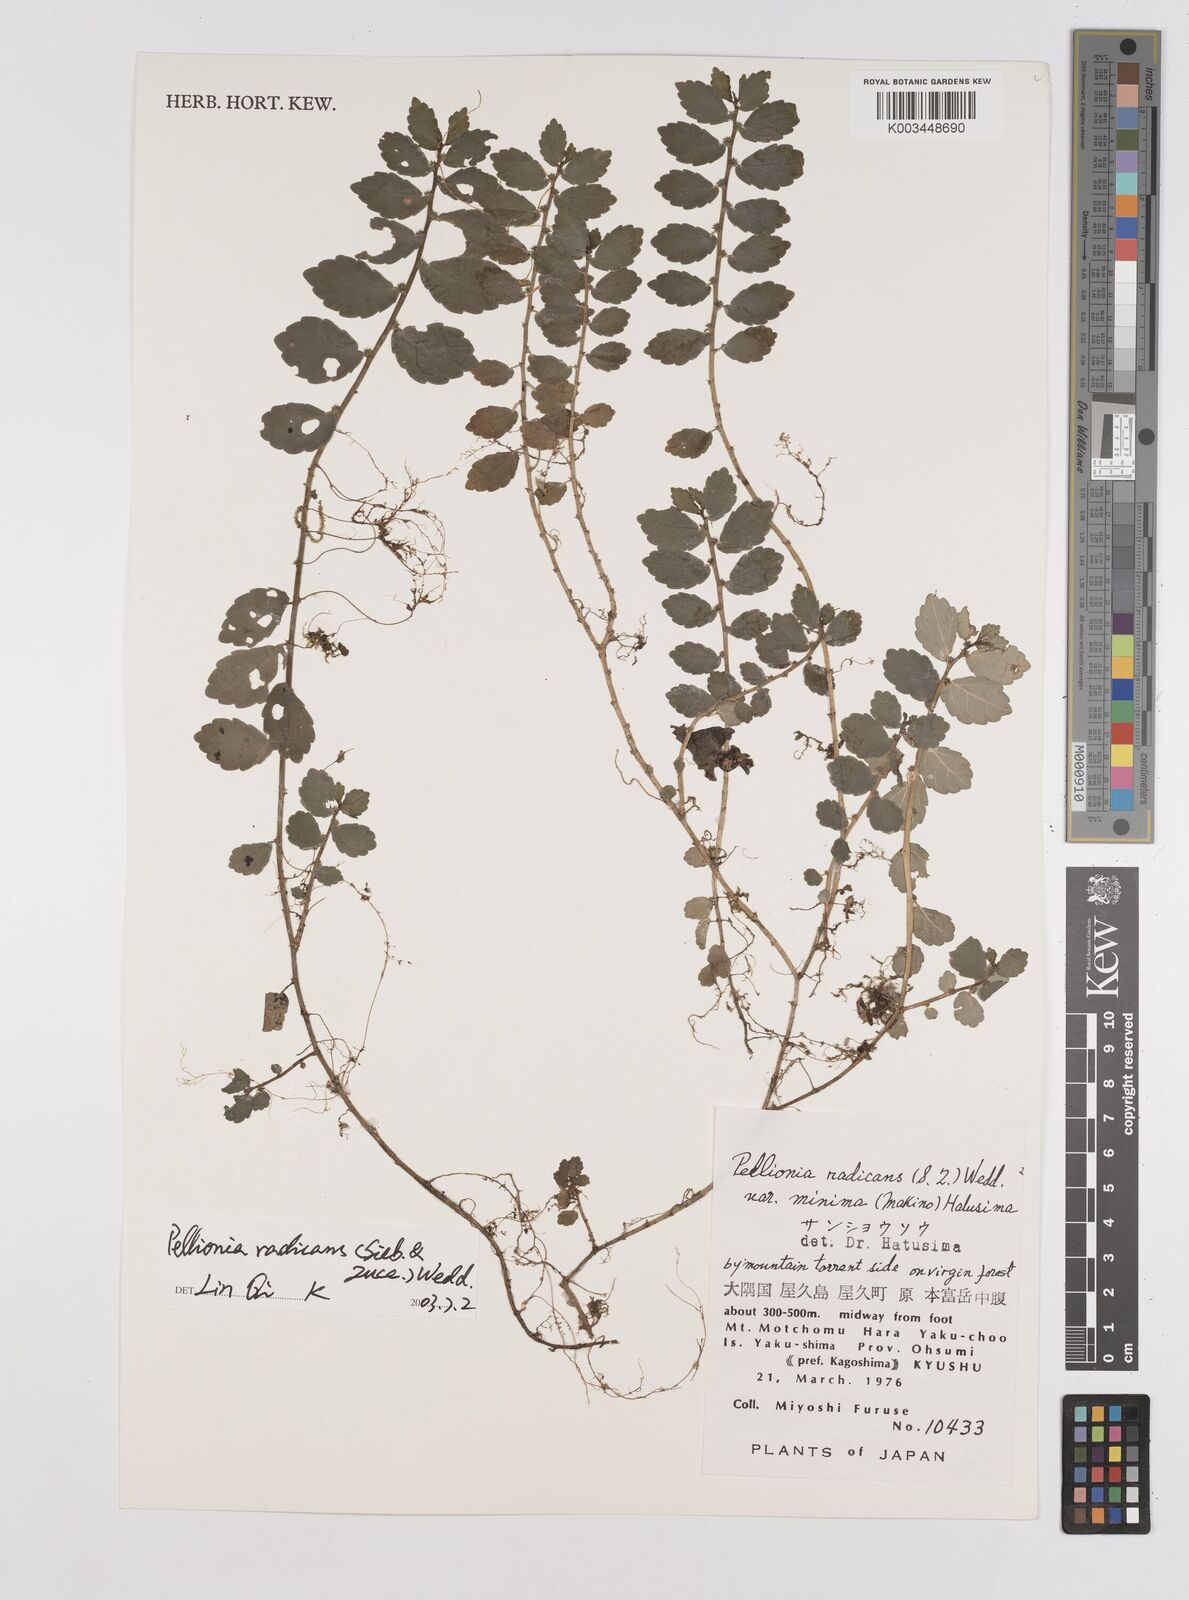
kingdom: Plantae
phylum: Tracheophyta
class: Magnoliopsida
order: Rosales
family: Urticaceae
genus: Elatostema
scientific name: Elatostema radicans
